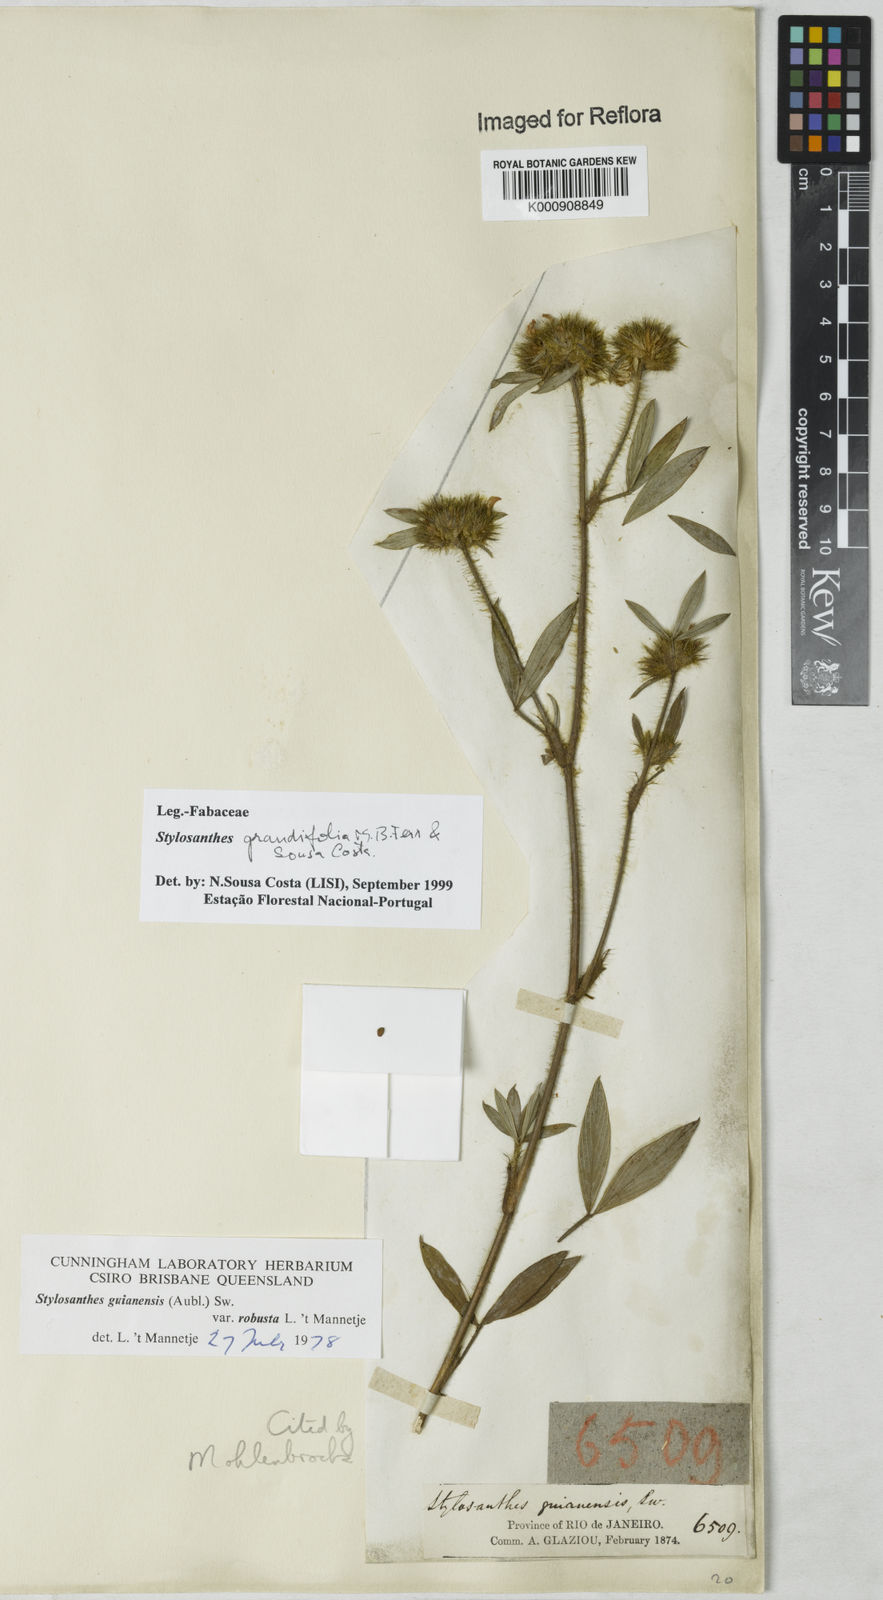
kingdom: Plantae
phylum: Tracheophyta
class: Magnoliopsida
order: Fabales
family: Fabaceae
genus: Stylosanthes
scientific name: Stylosanthes guianensis
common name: Pencil flower
